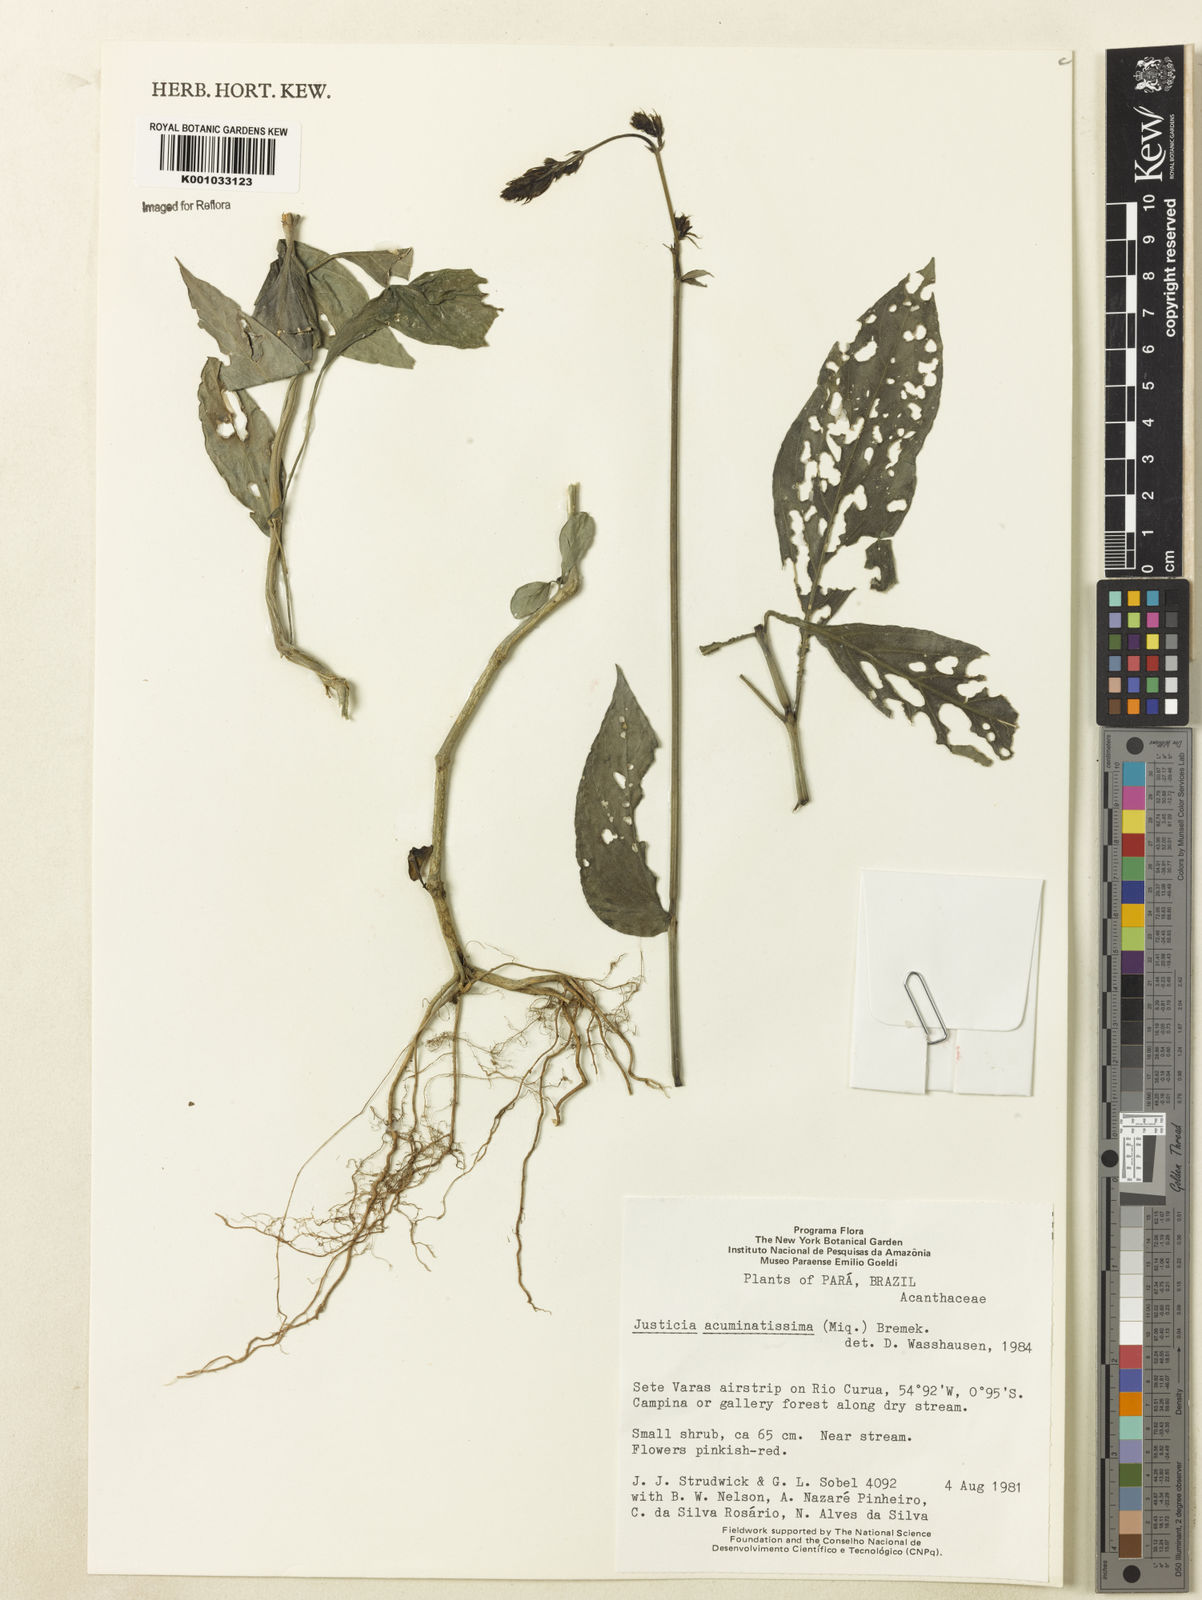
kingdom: Plantae
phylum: Tracheophyta
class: Magnoliopsida
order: Lamiales
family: Acanthaceae
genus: Dianthera
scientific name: Dianthera comata
